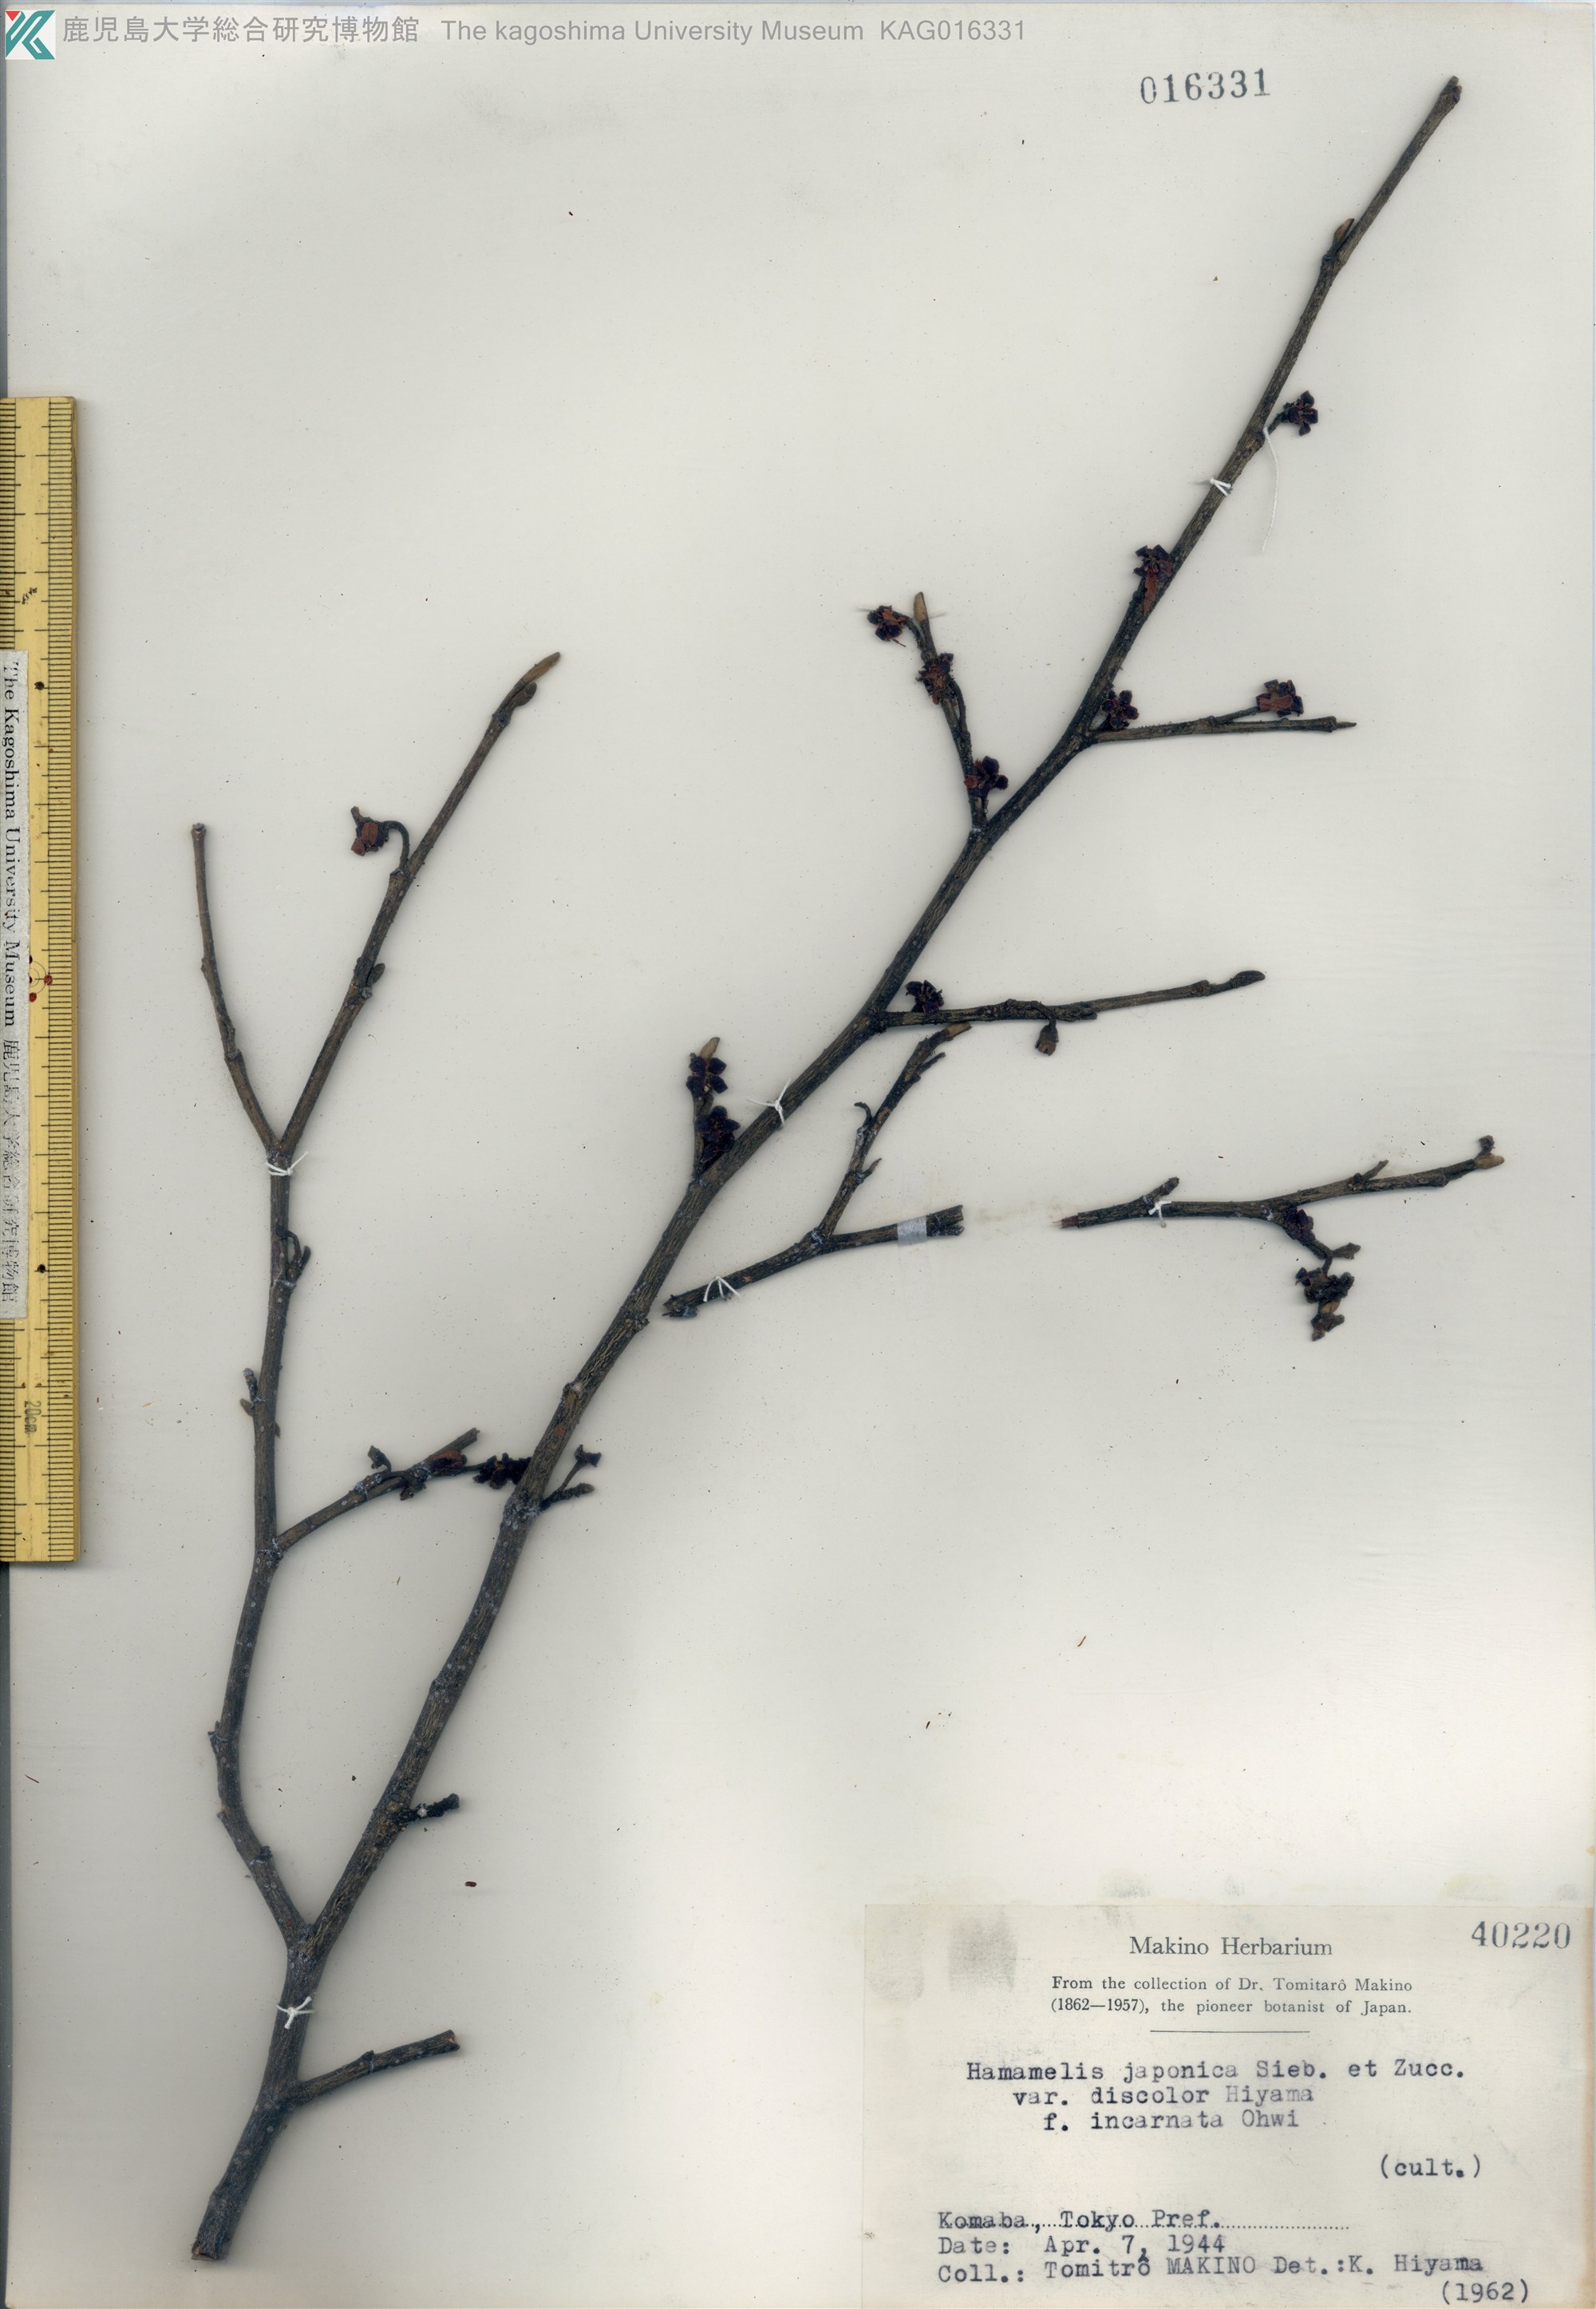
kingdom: Plantae
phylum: Tracheophyta
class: Magnoliopsida
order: Saxifragales
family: Hamamelidaceae
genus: Hamamelis
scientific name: Hamamelis japonica
